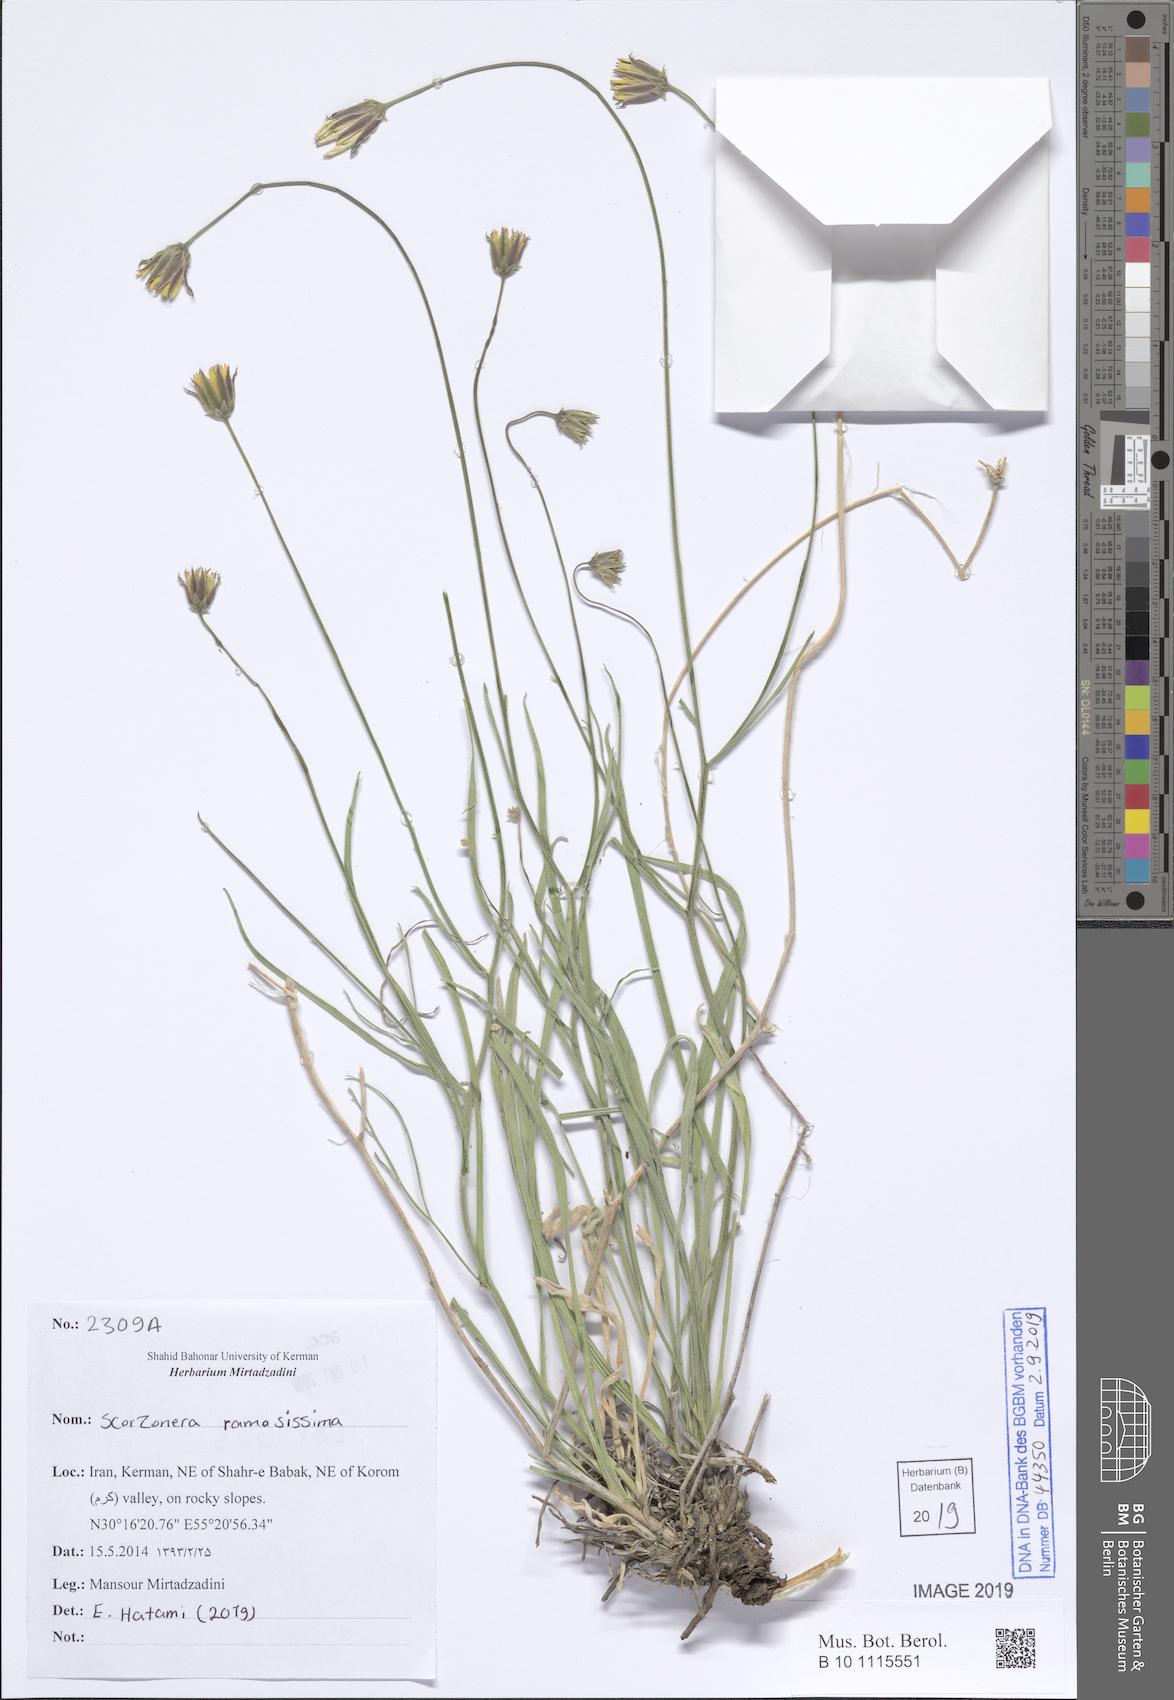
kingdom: Plantae
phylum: Tracheophyta
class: Magnoliopsida
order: Asterales
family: Asteraceae
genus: Gelasia
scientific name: Gelasia ramosissima
